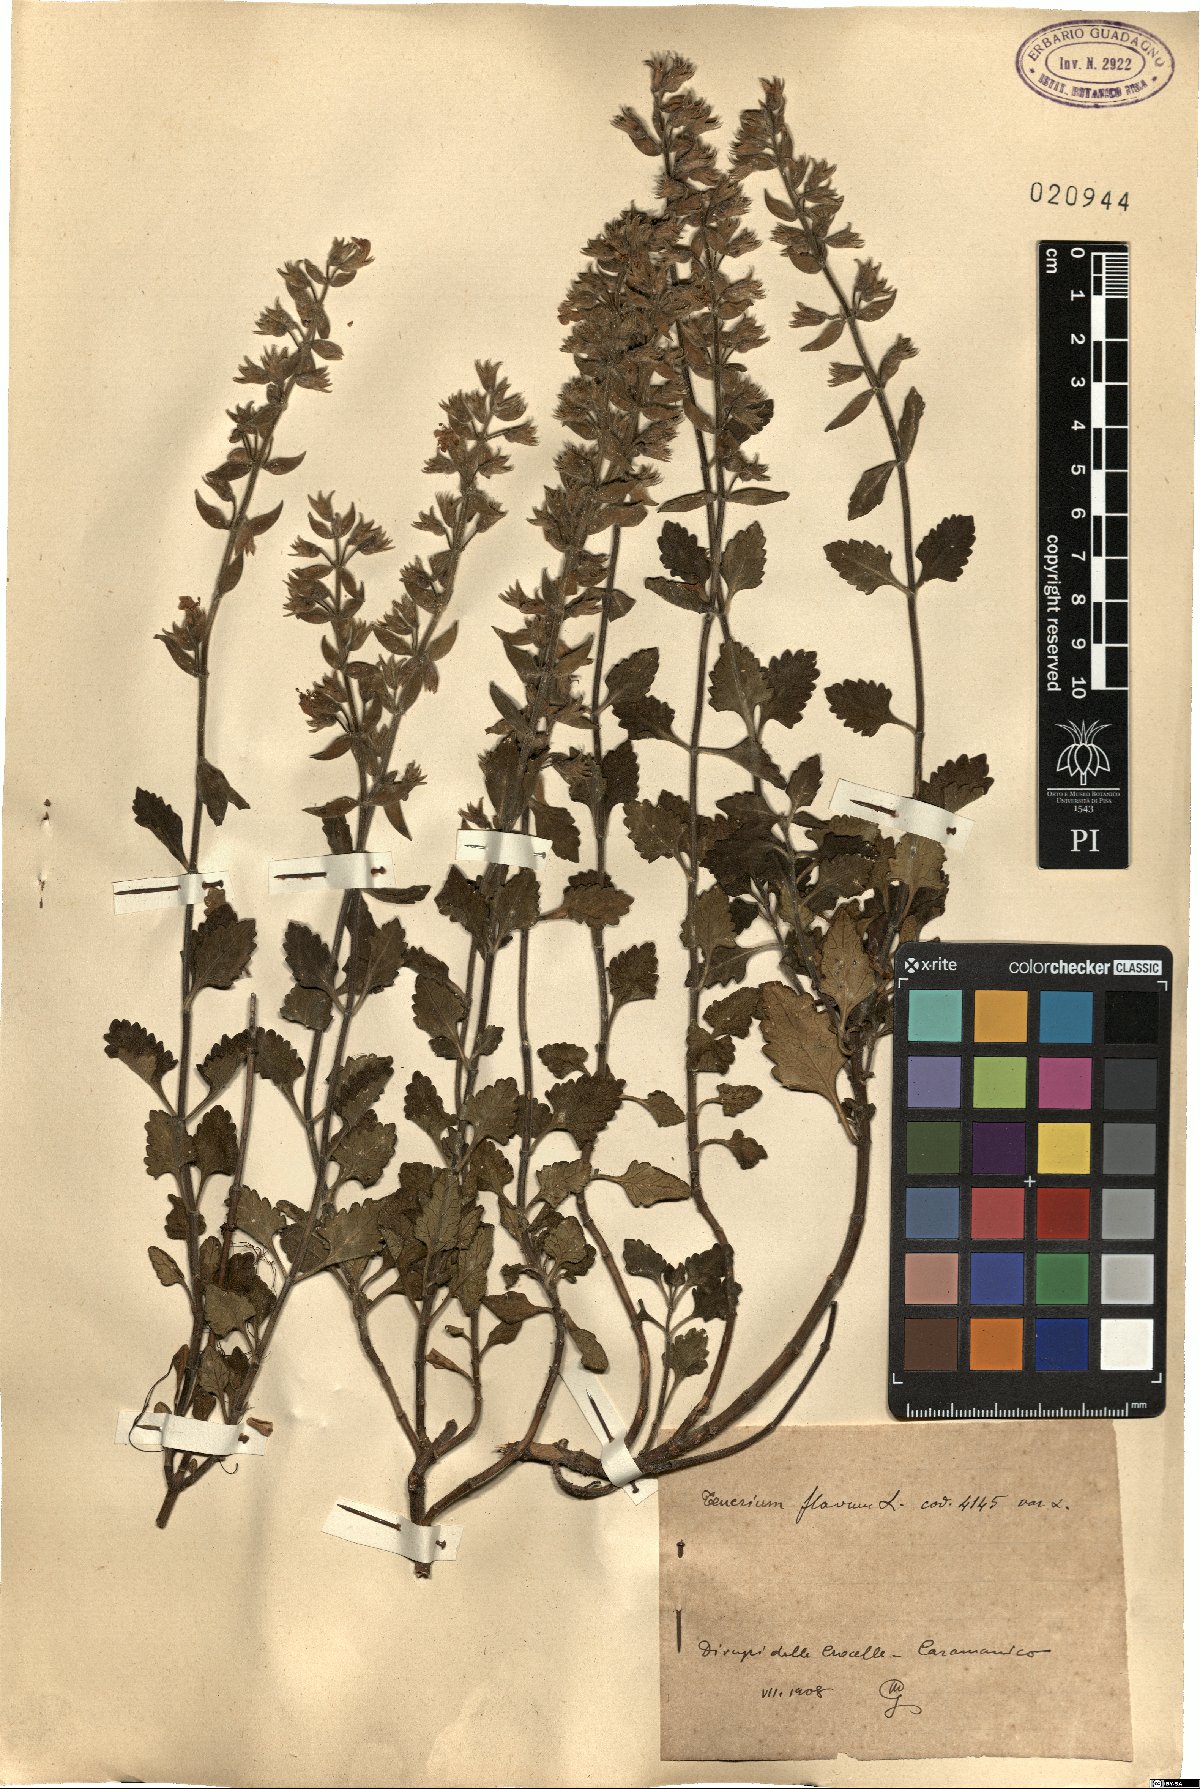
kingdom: Plantae
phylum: Tracheophyta
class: Magnoliopsida
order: Lamiales
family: Lamiaceae
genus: Teucrium
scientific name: Teucrium flavum
